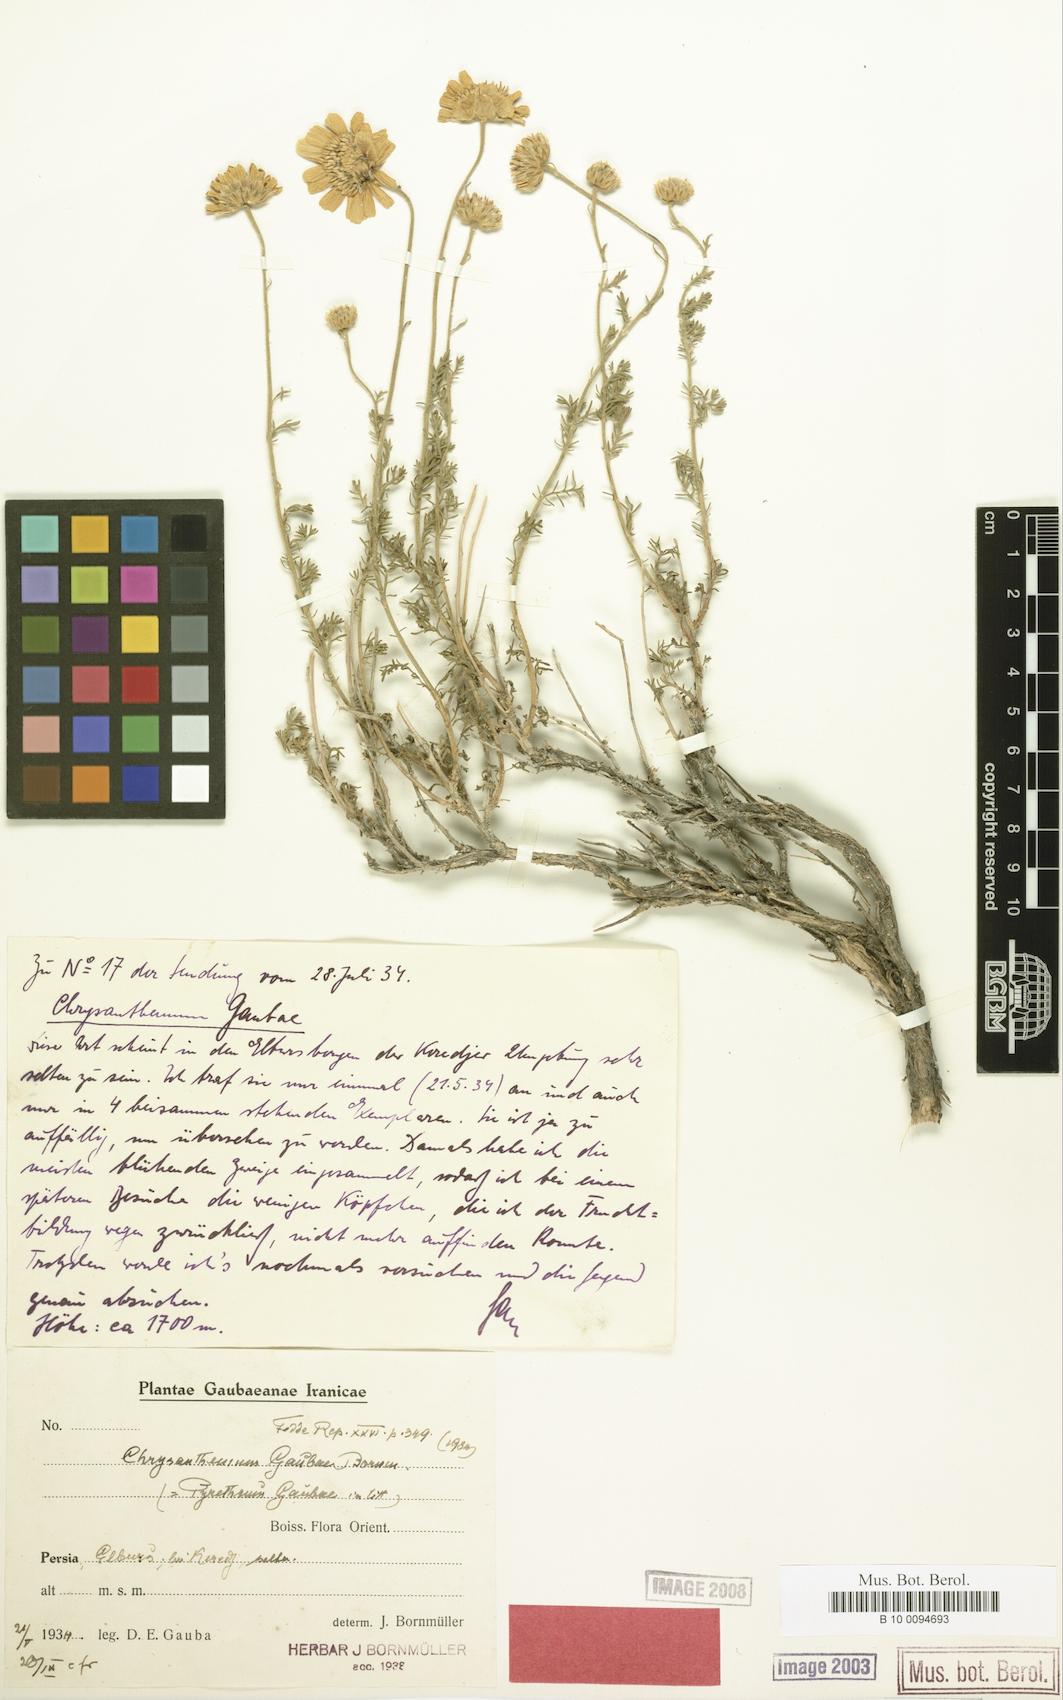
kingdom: Plantae
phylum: Tracheophyta
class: Magnoliopsida
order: Asterales
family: Asteraceae
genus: Tanacetum
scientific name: Tanacetum
